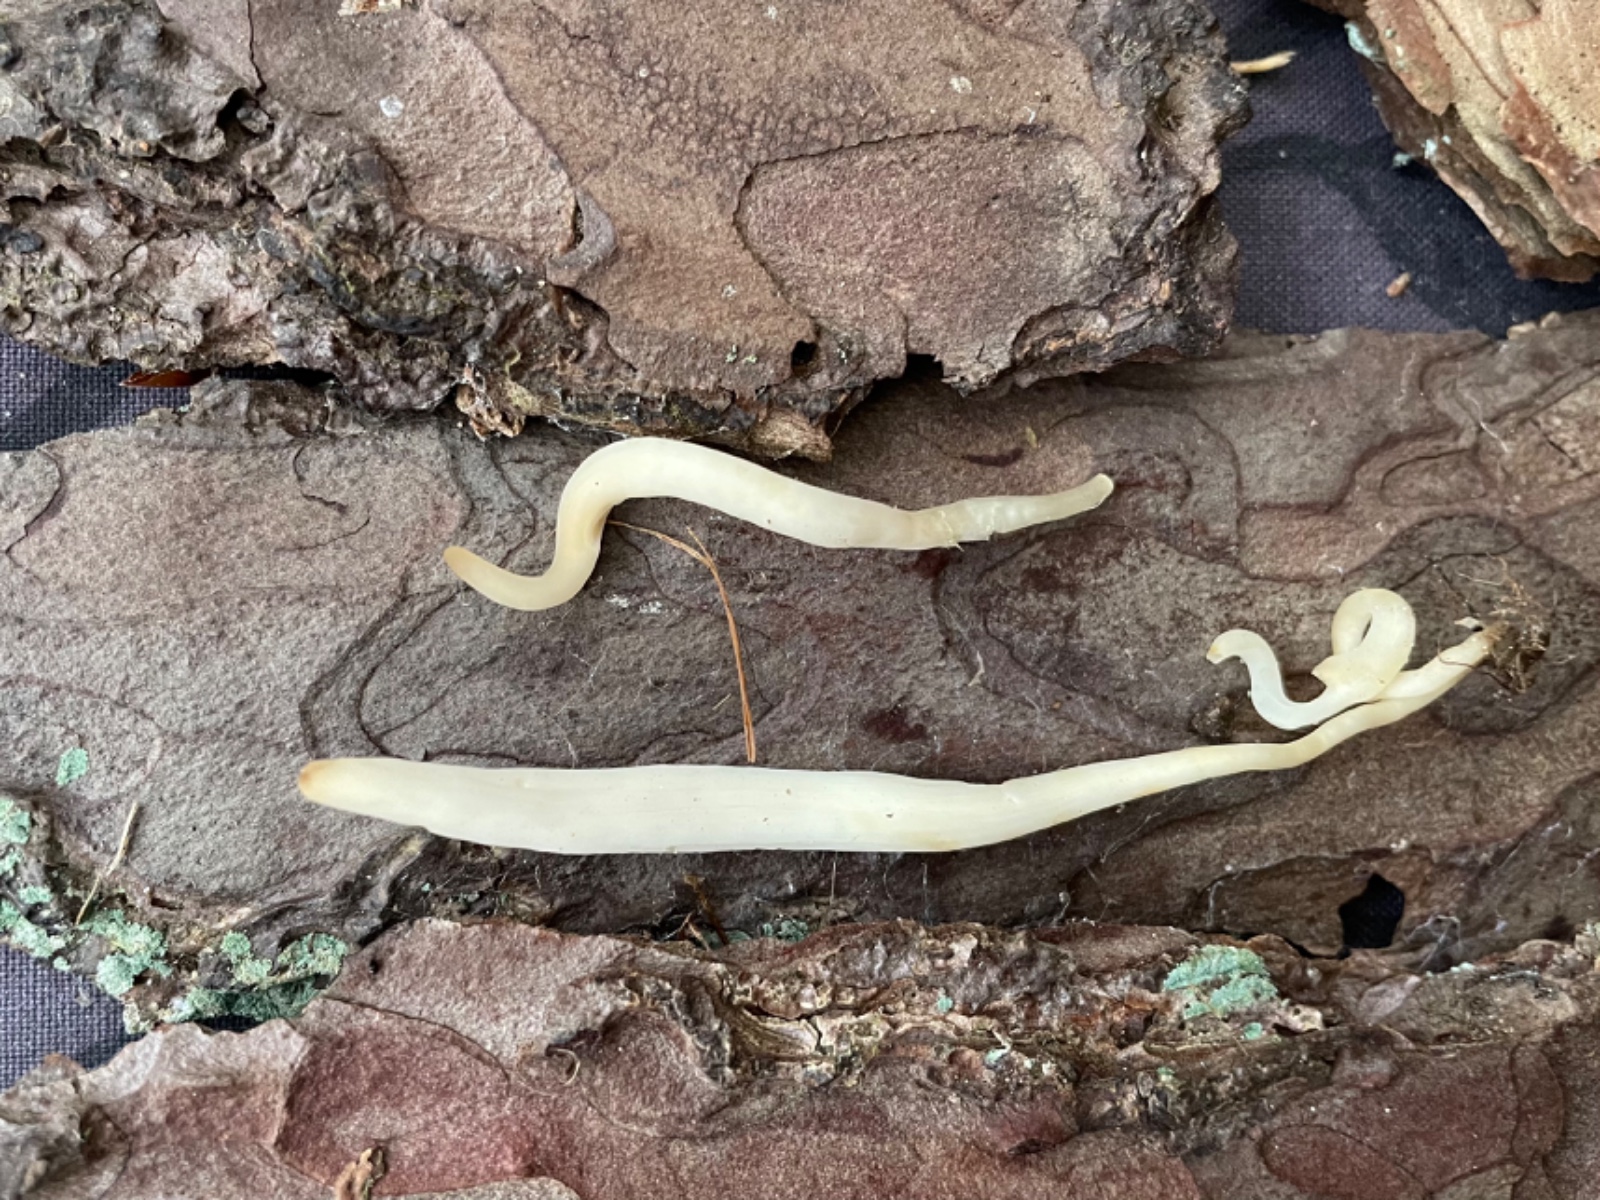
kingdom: Fungi
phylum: Basidiomycota
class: Agaricomycetes
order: Agaricales
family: Clavariaceae
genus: Clavaria
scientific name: Clavaria
